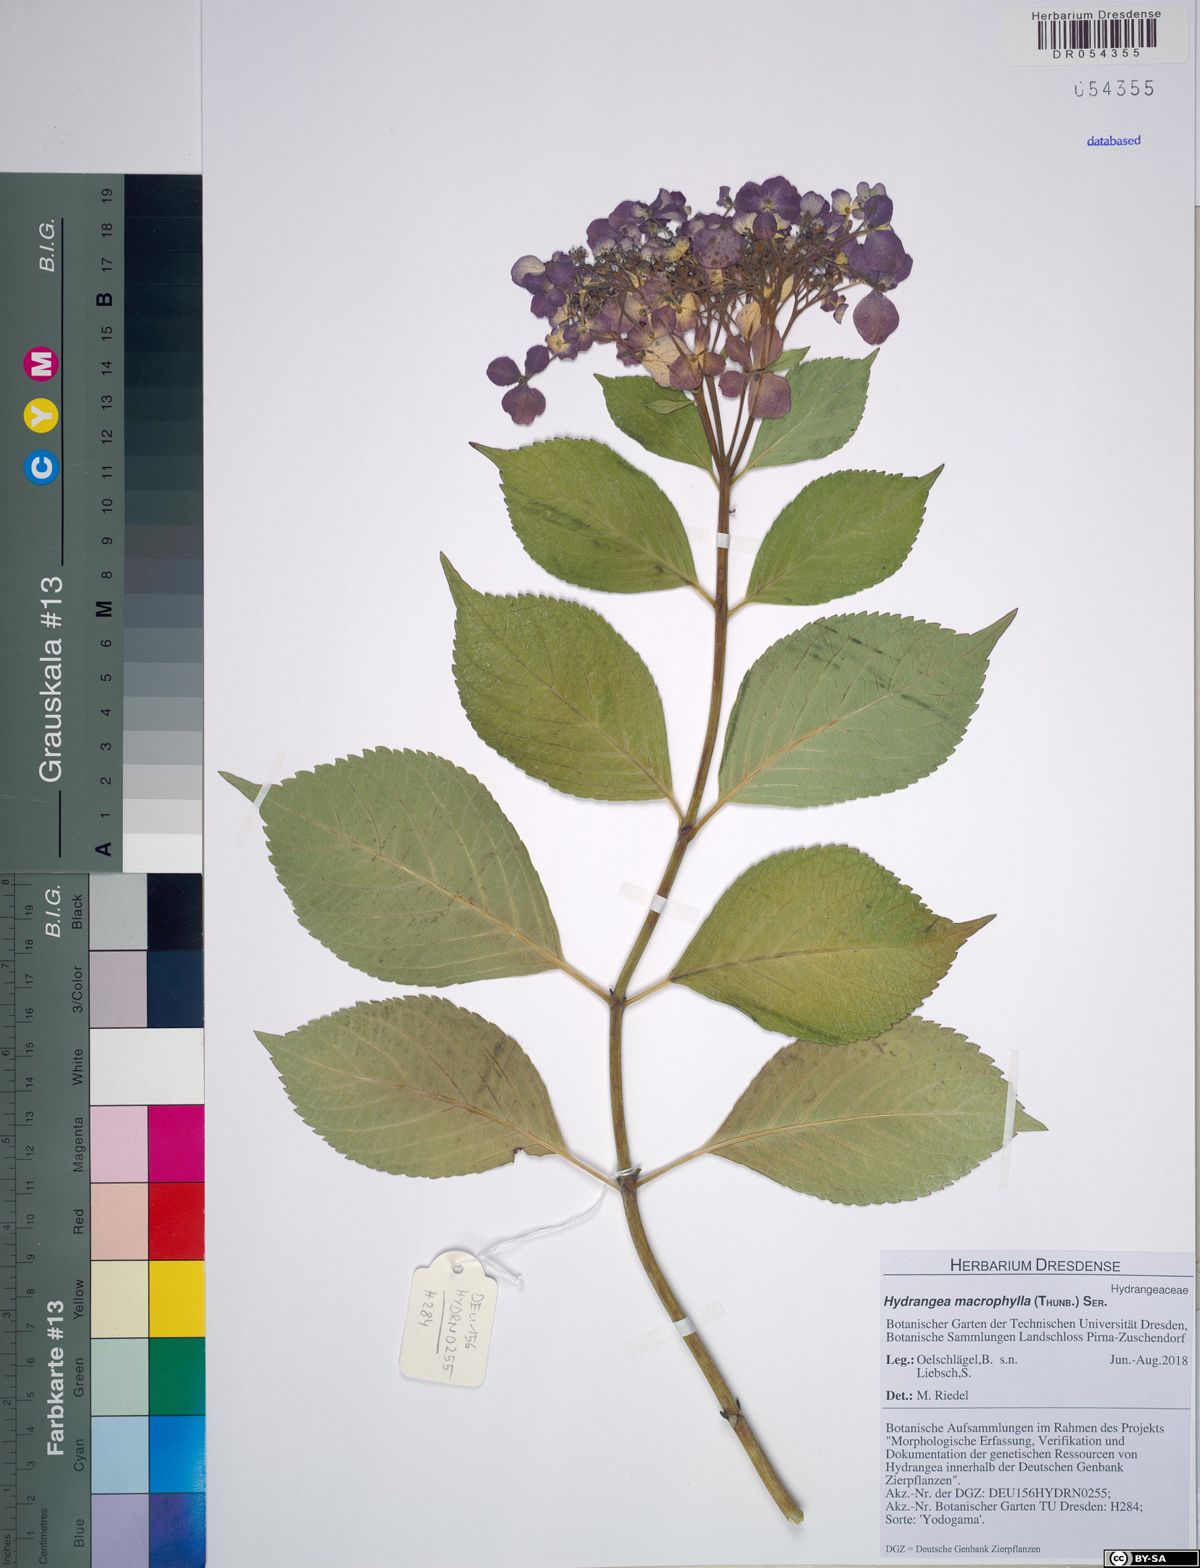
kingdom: Plantae
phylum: Tracheophyta
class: Magnoliopsida
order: Cornales
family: Hydrangeaceae
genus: Hydrangea
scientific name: Hydrangea macrophylla
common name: Hydrangea
